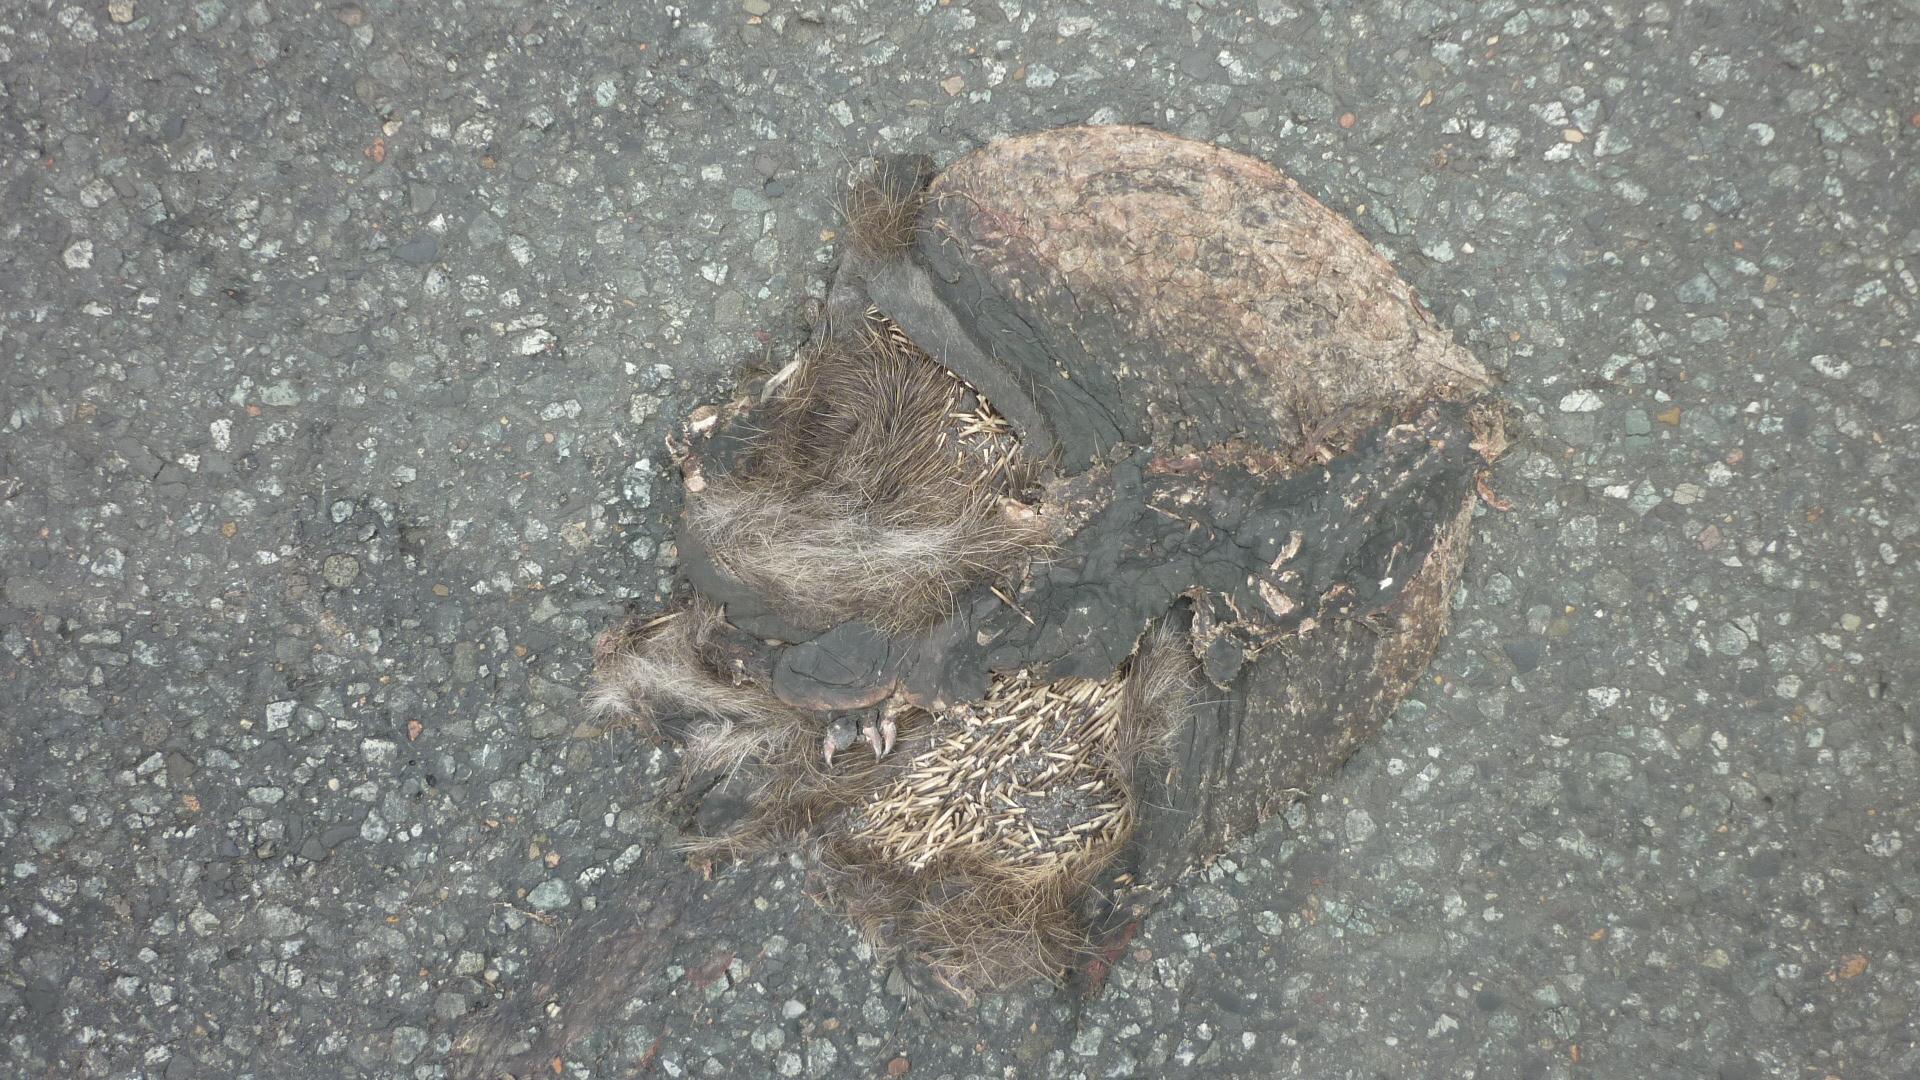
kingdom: Animalia
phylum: Chordata
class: Mammalia
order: Erinaceomorpha
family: Erinaceidae
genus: Erinaceus
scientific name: Erinaceus
